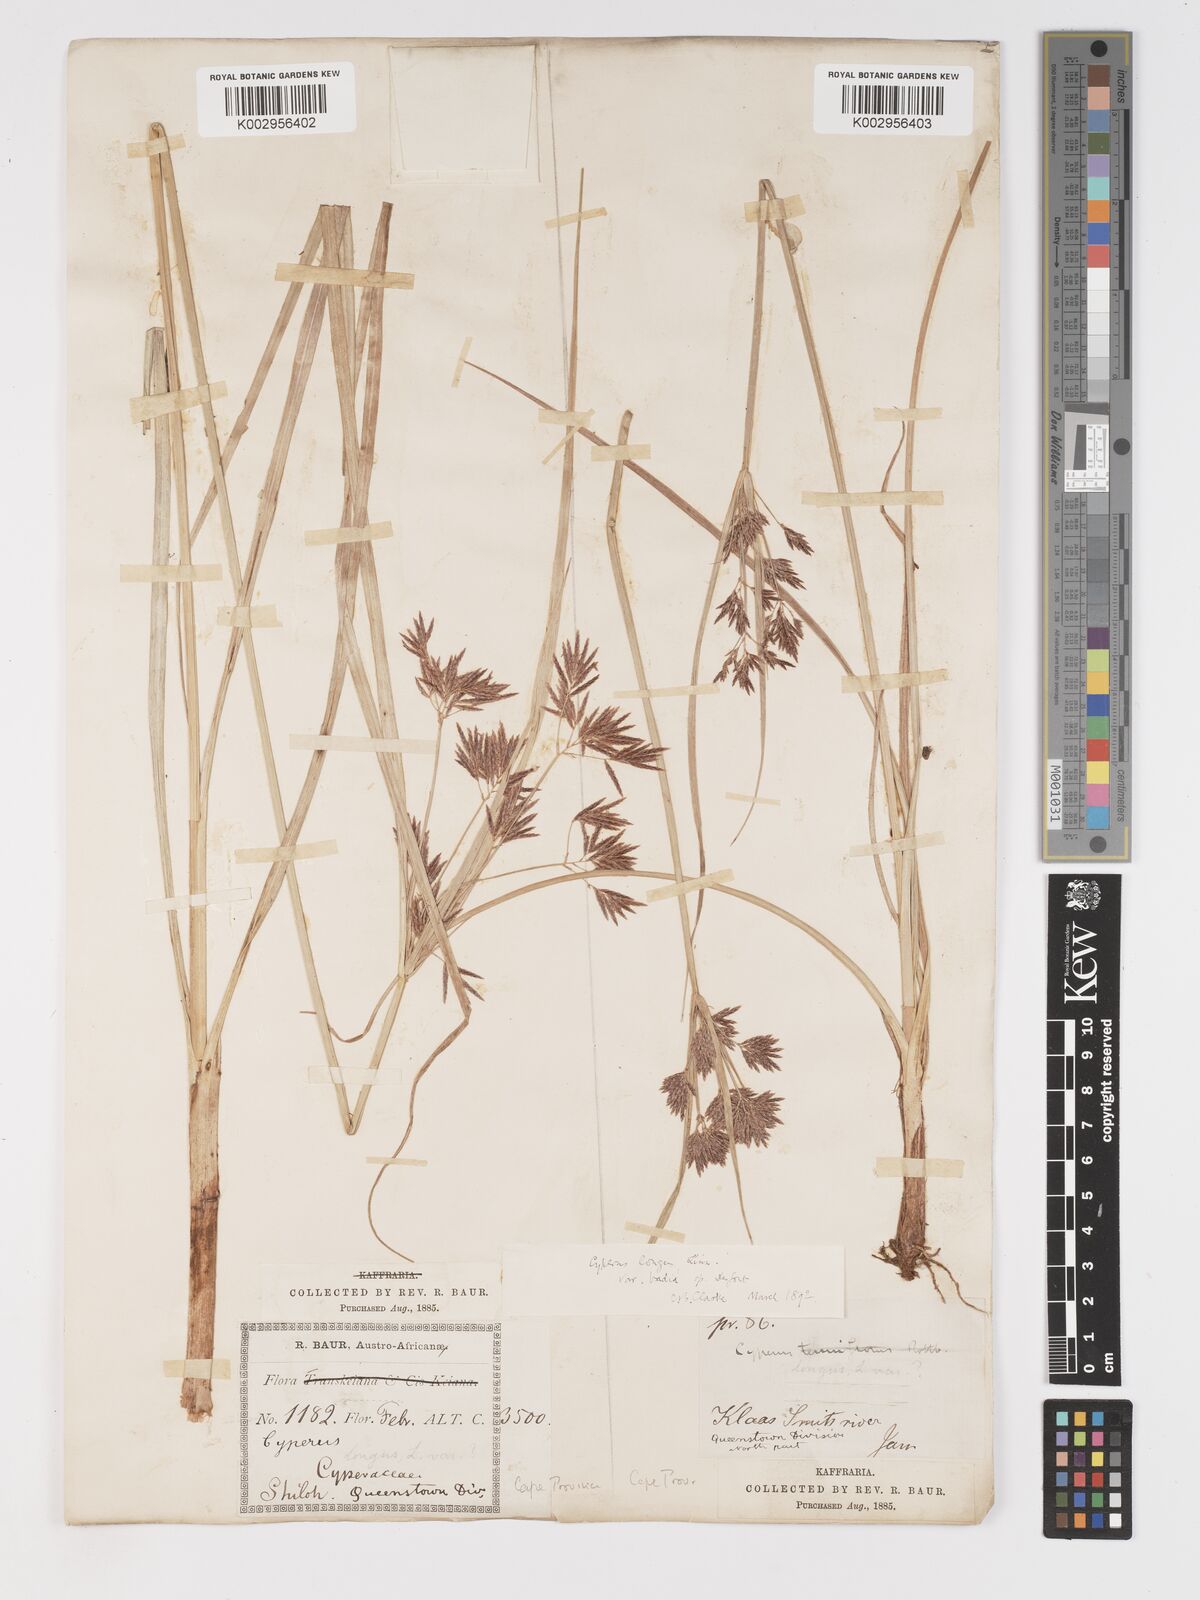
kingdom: Plantae
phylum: Tracheophyta
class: Liliopsida
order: Poales
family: Cyperaceae
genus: Cyperus
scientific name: Cyperus longus
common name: Galingale
